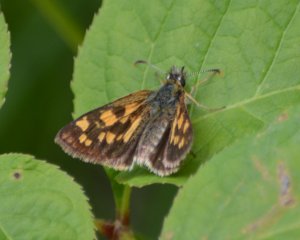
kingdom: Animalia
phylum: Arthropoda
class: Insecta
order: Lepidoptera
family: Hesperiidae
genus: Carterocephalus
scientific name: Carterocephalus palaemon
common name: Chequered Skipper
